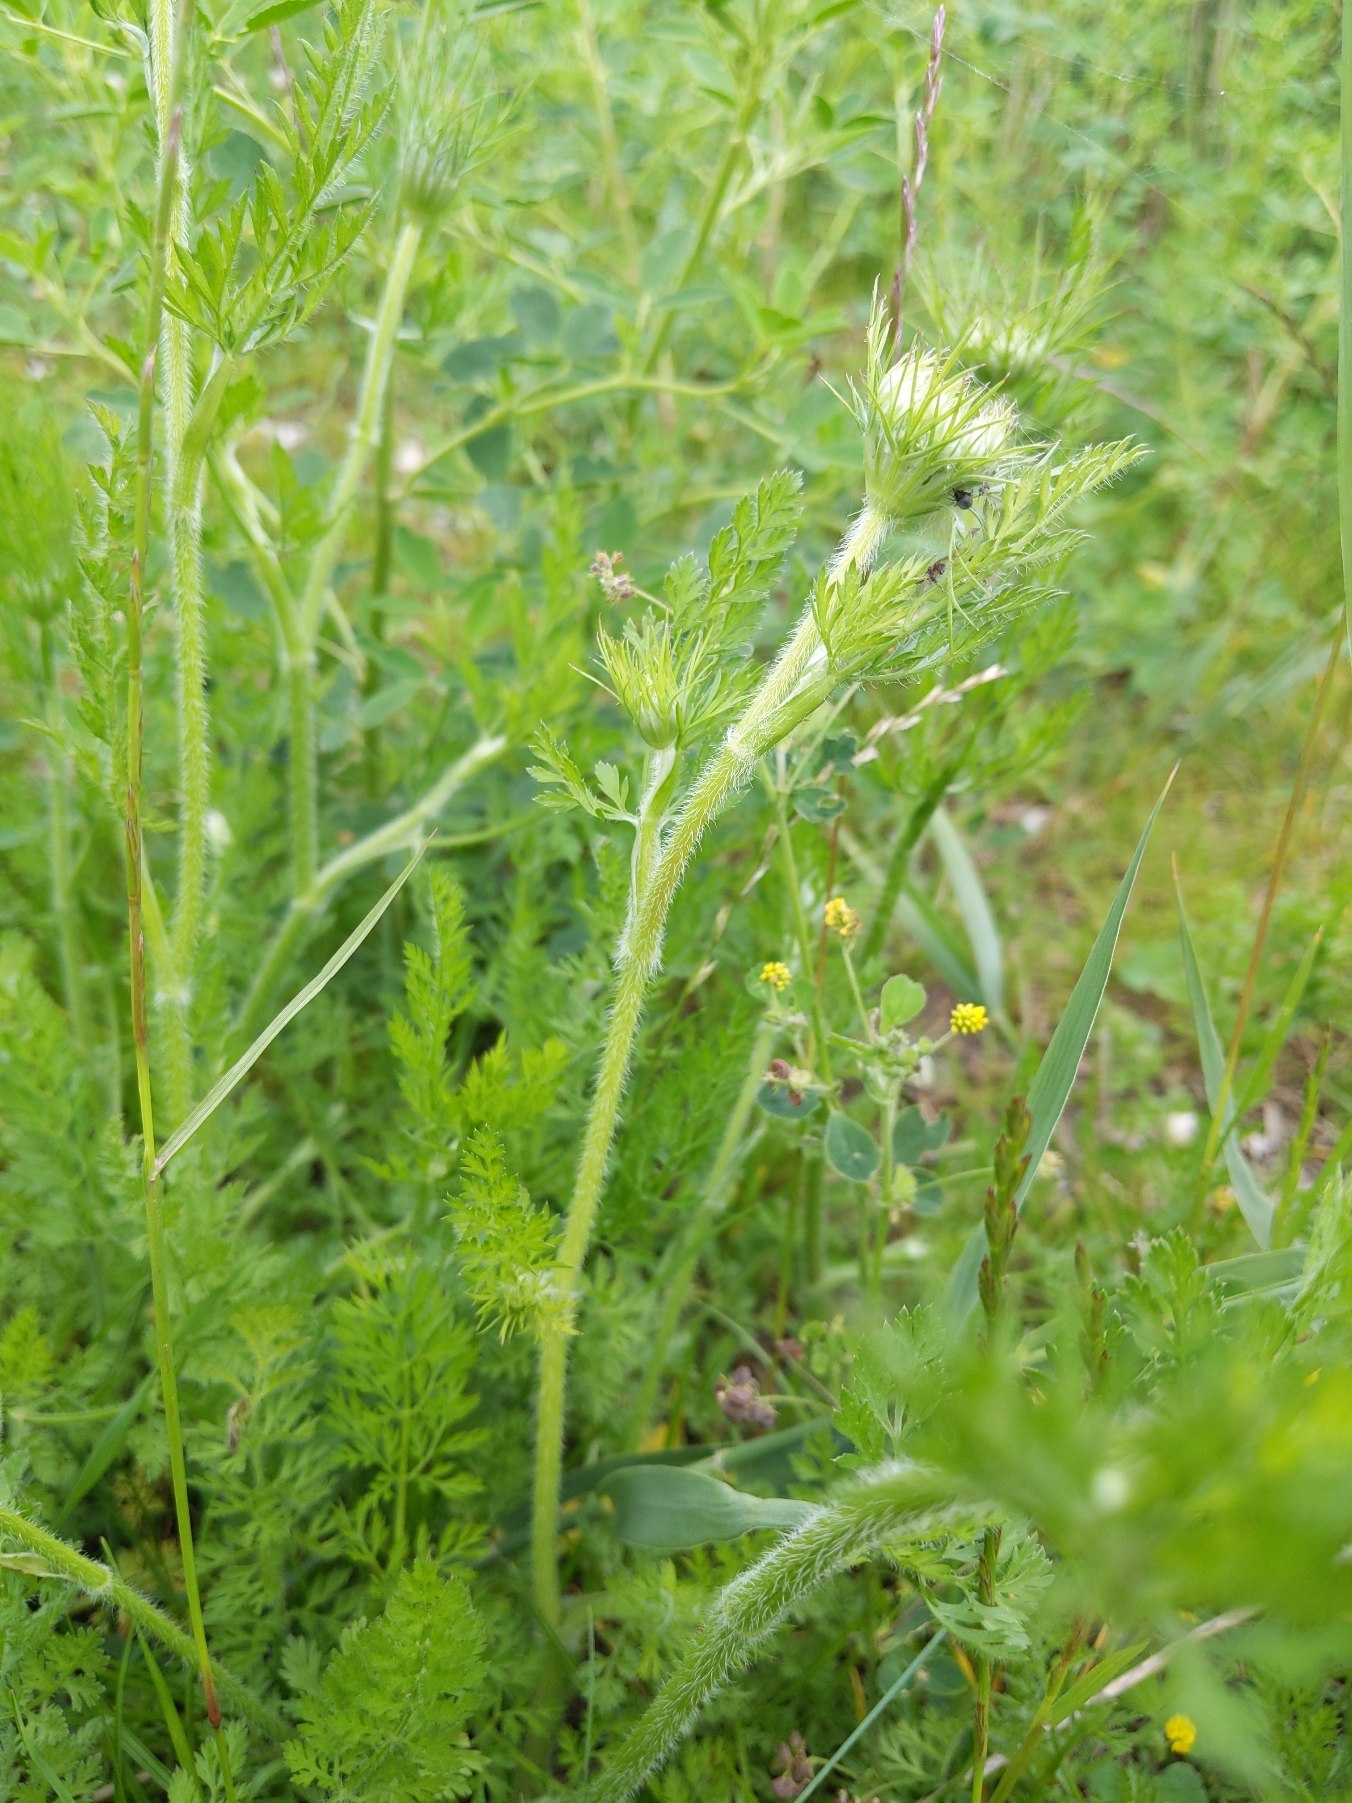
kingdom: Plantae
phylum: Tracheophyta
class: Magnoliopsida
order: Apiales
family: Apiaceae
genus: Daucus
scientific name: Daucus carota
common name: Vild gulerod
